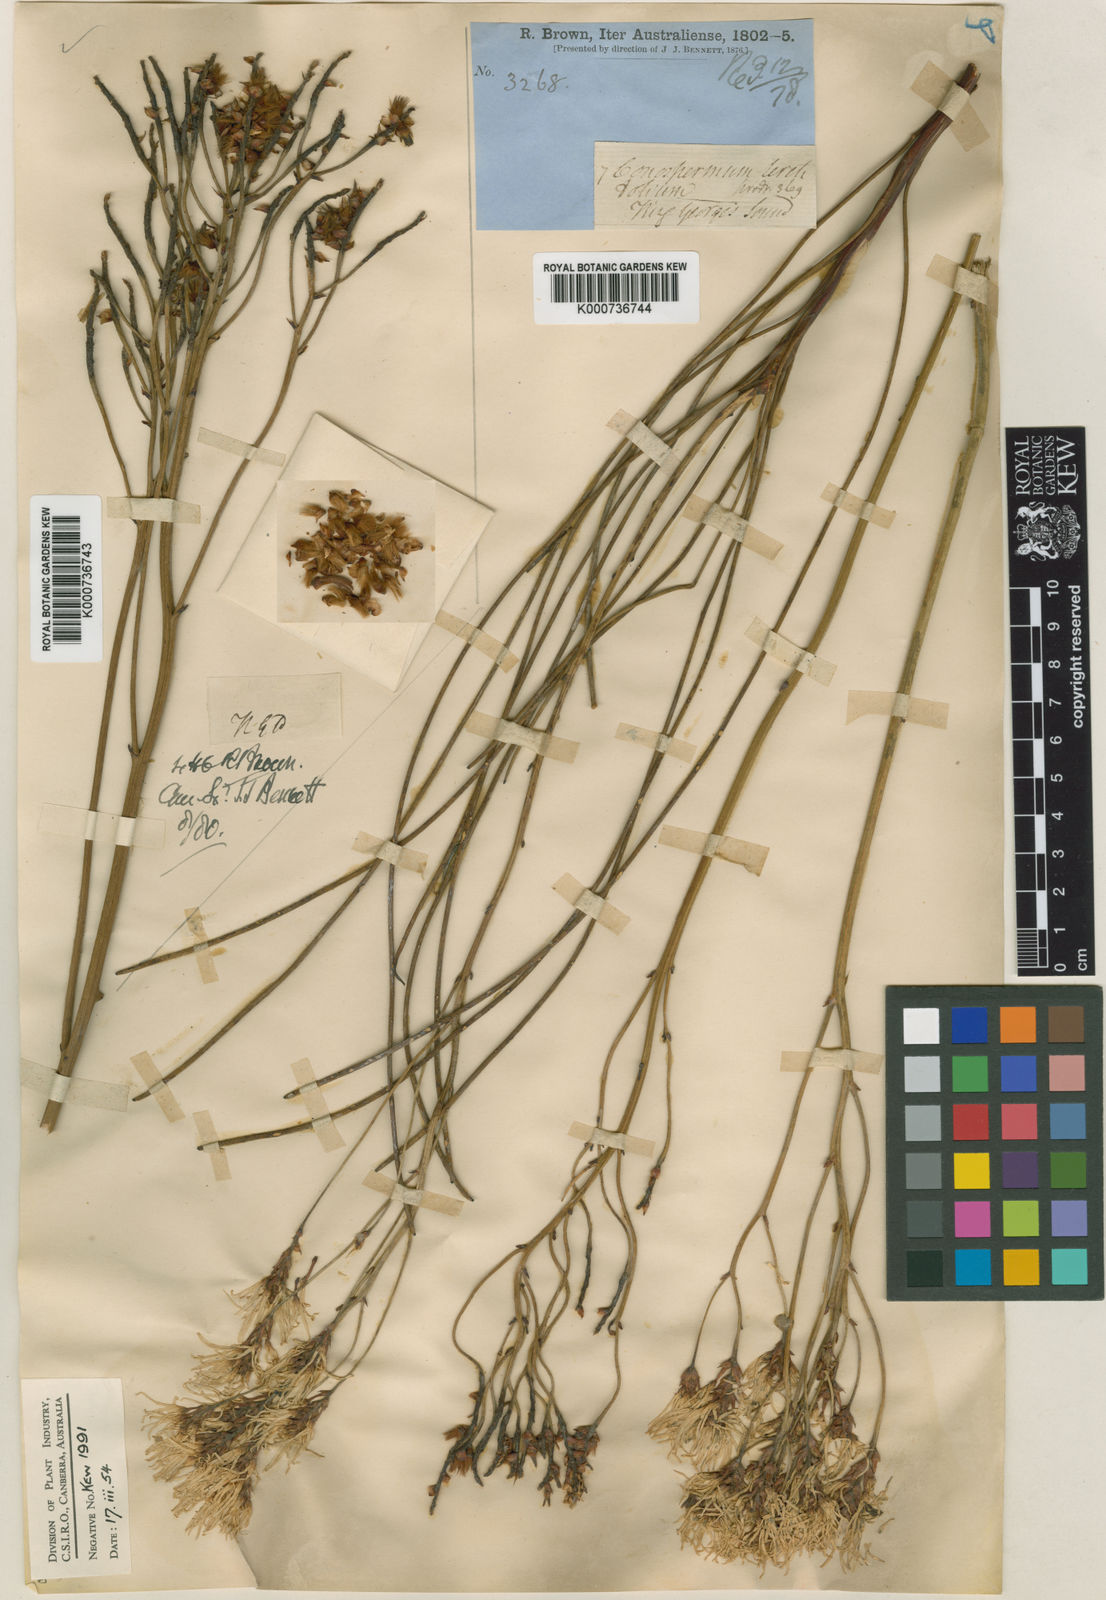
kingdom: Plantae
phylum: Tracheophyta
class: Magnoliopsida
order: Proteales
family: Proteaceae
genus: Conospermum
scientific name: Conospermum teretifolium
